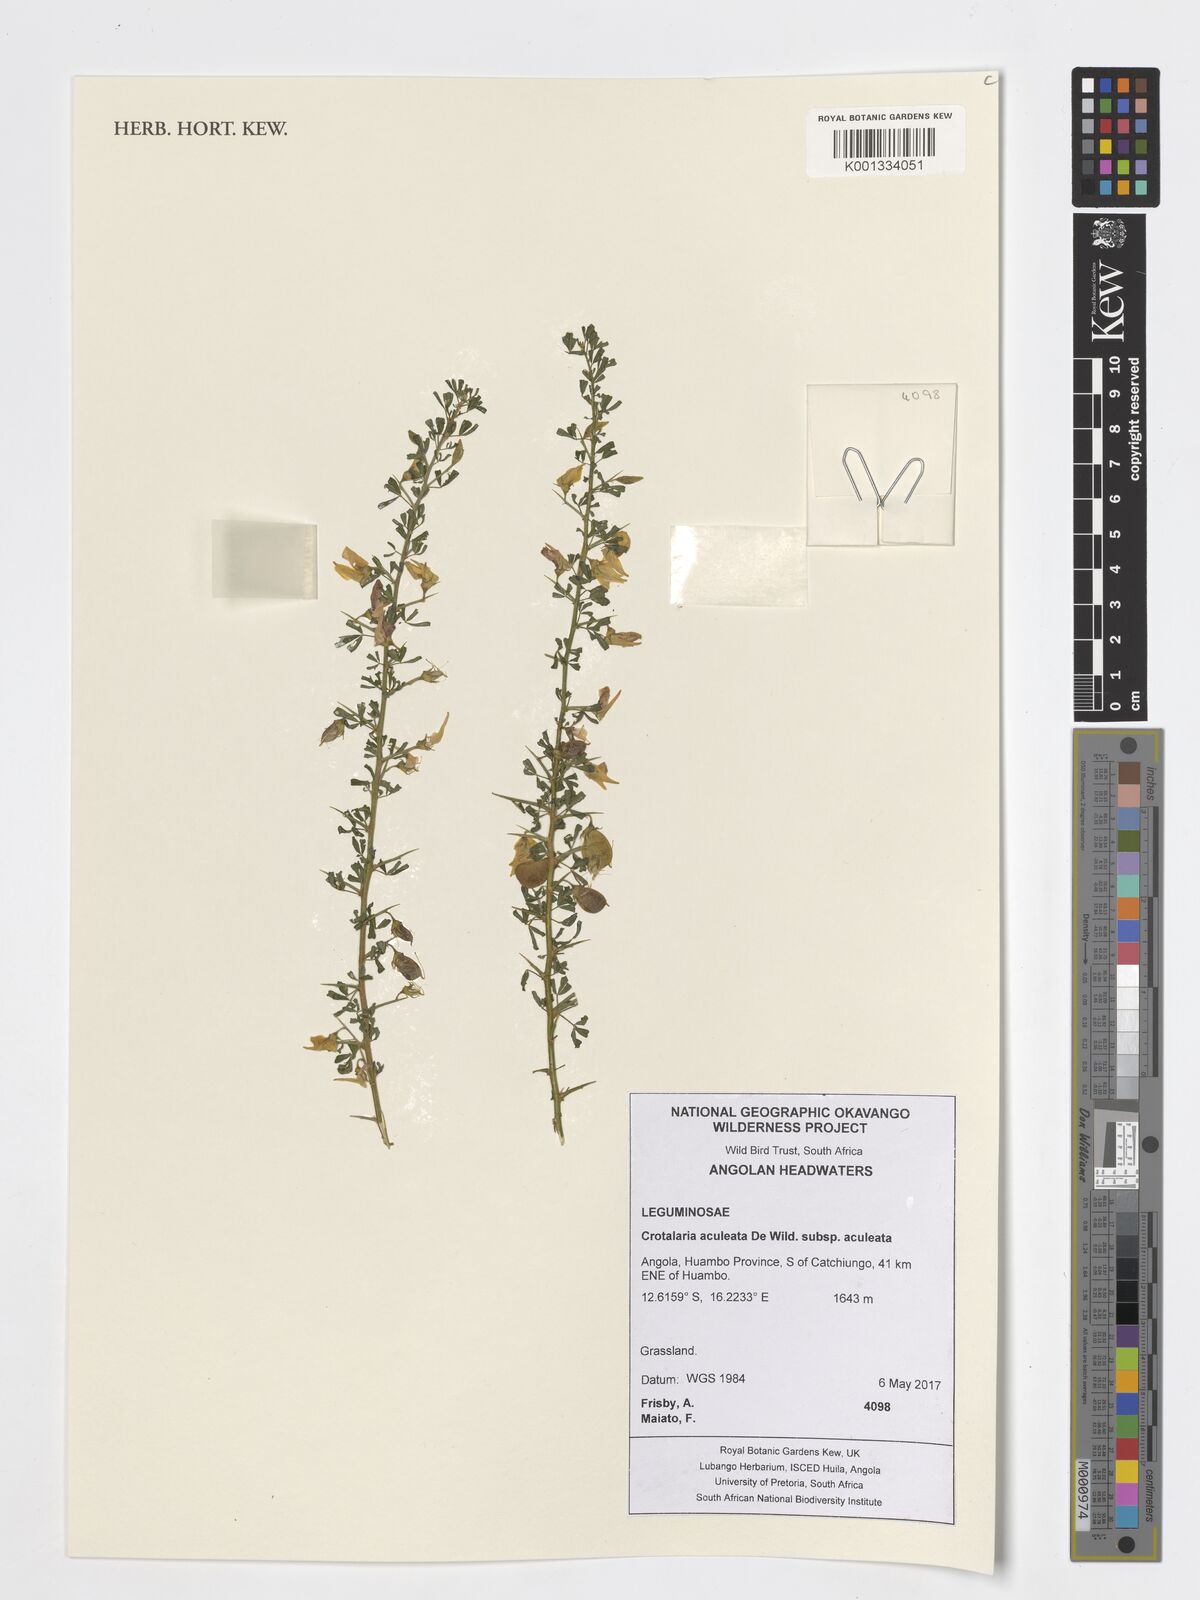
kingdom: Plantae
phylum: Tracheophyta
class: Magnoliopsida
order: Fabales
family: Fabaceae
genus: Crotalaria
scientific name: Crotalaria aculeata
